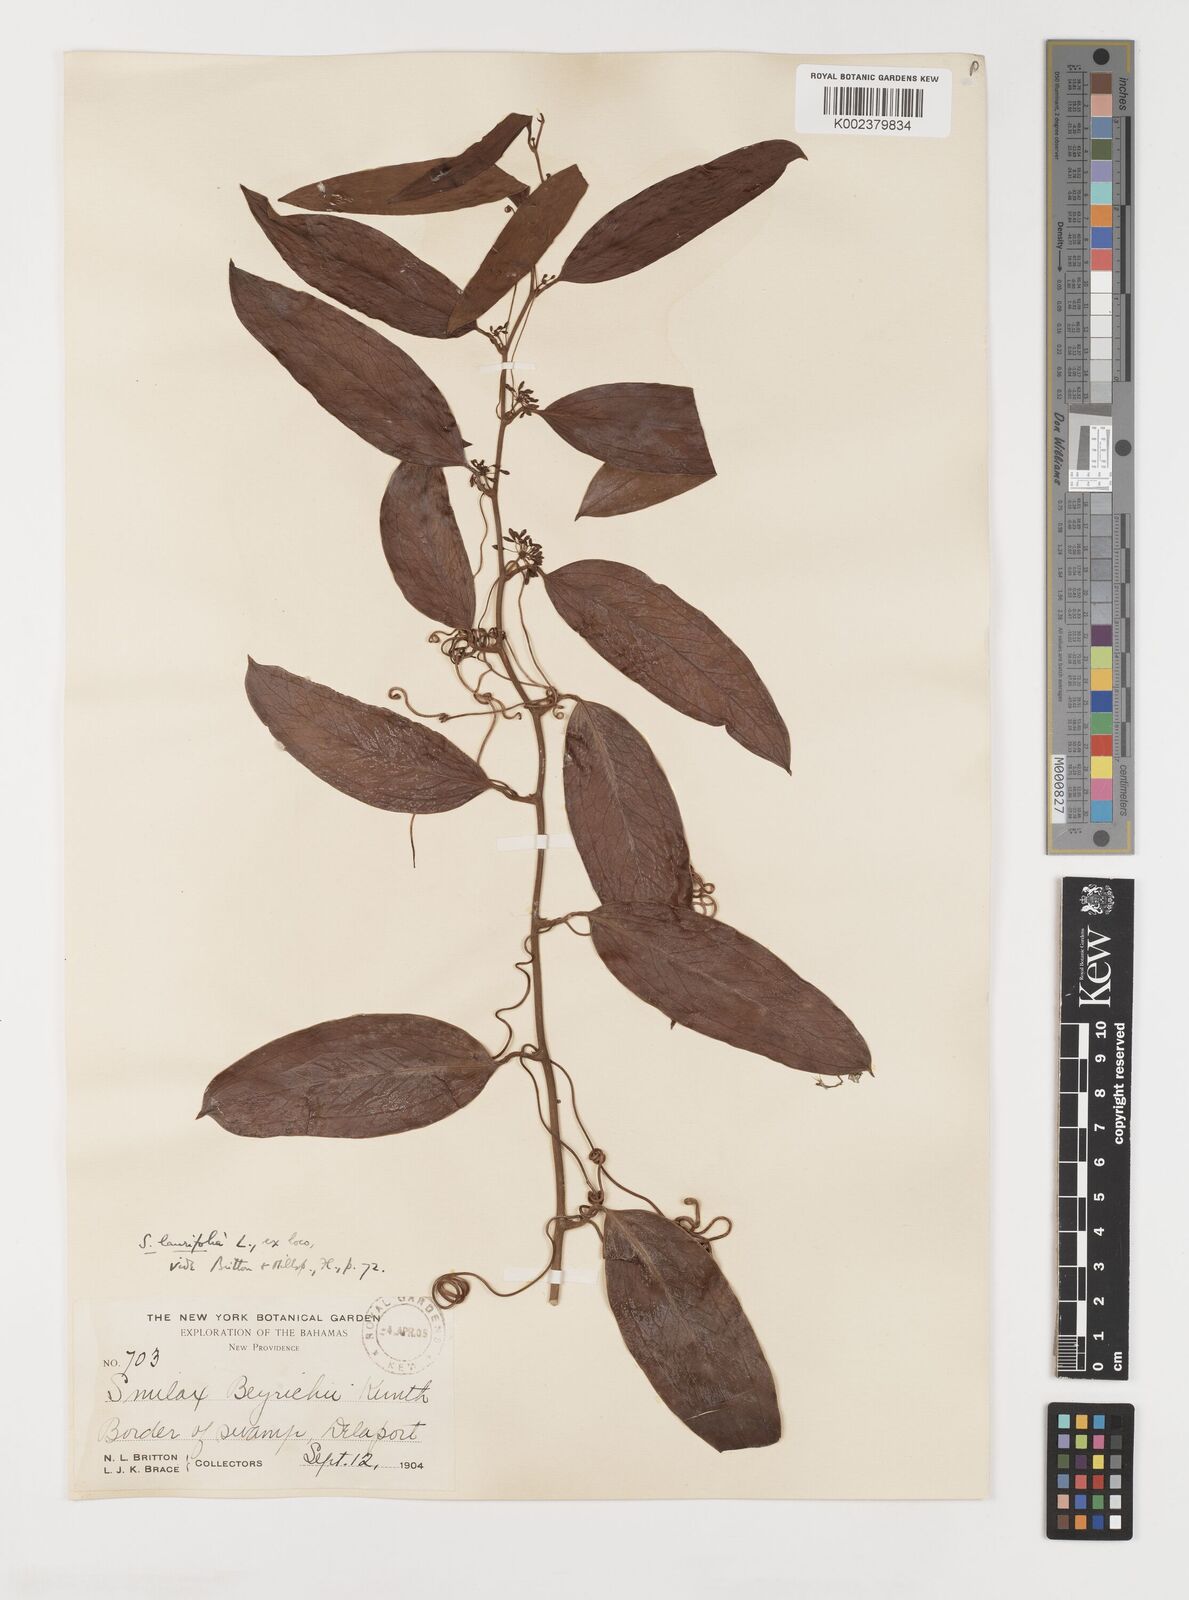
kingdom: Plantae
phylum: Tracheophyta
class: Liliopsida
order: Liliales
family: Smilacaceae
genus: Smilax
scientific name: Smilax laurifolia
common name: Bamboovine
